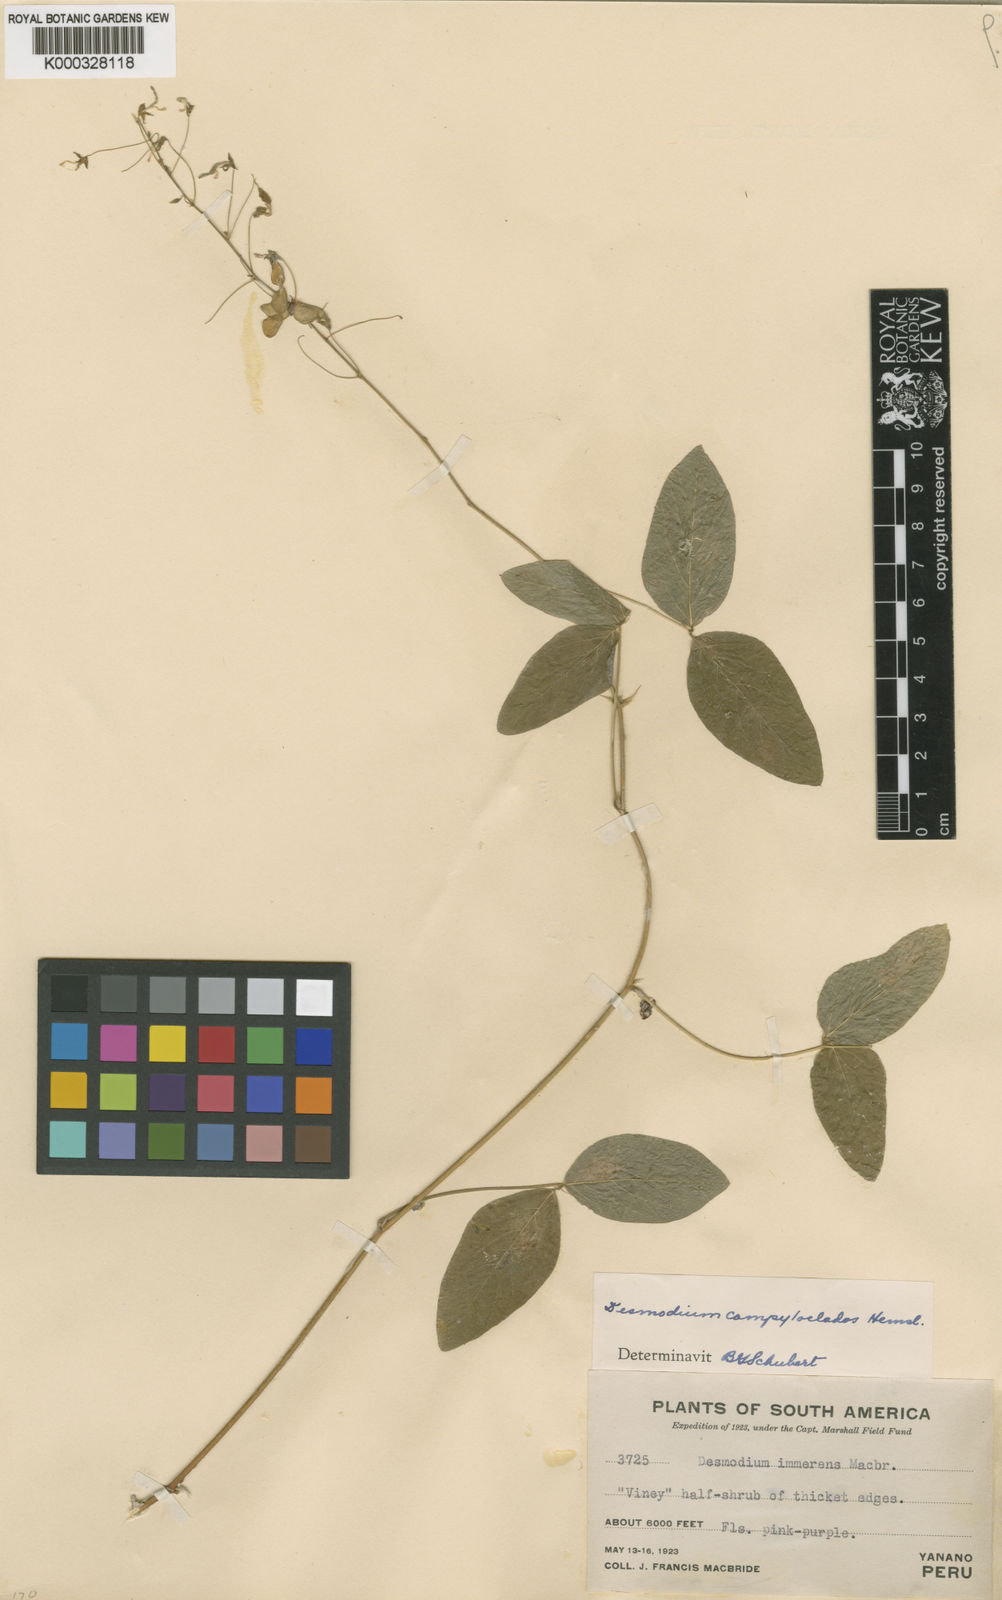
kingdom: Plantae
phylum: Tracheophyta
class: Magnoliopsida
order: Fabales
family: Fabaceae
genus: Desmodium
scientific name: Desmodium campyloclados
